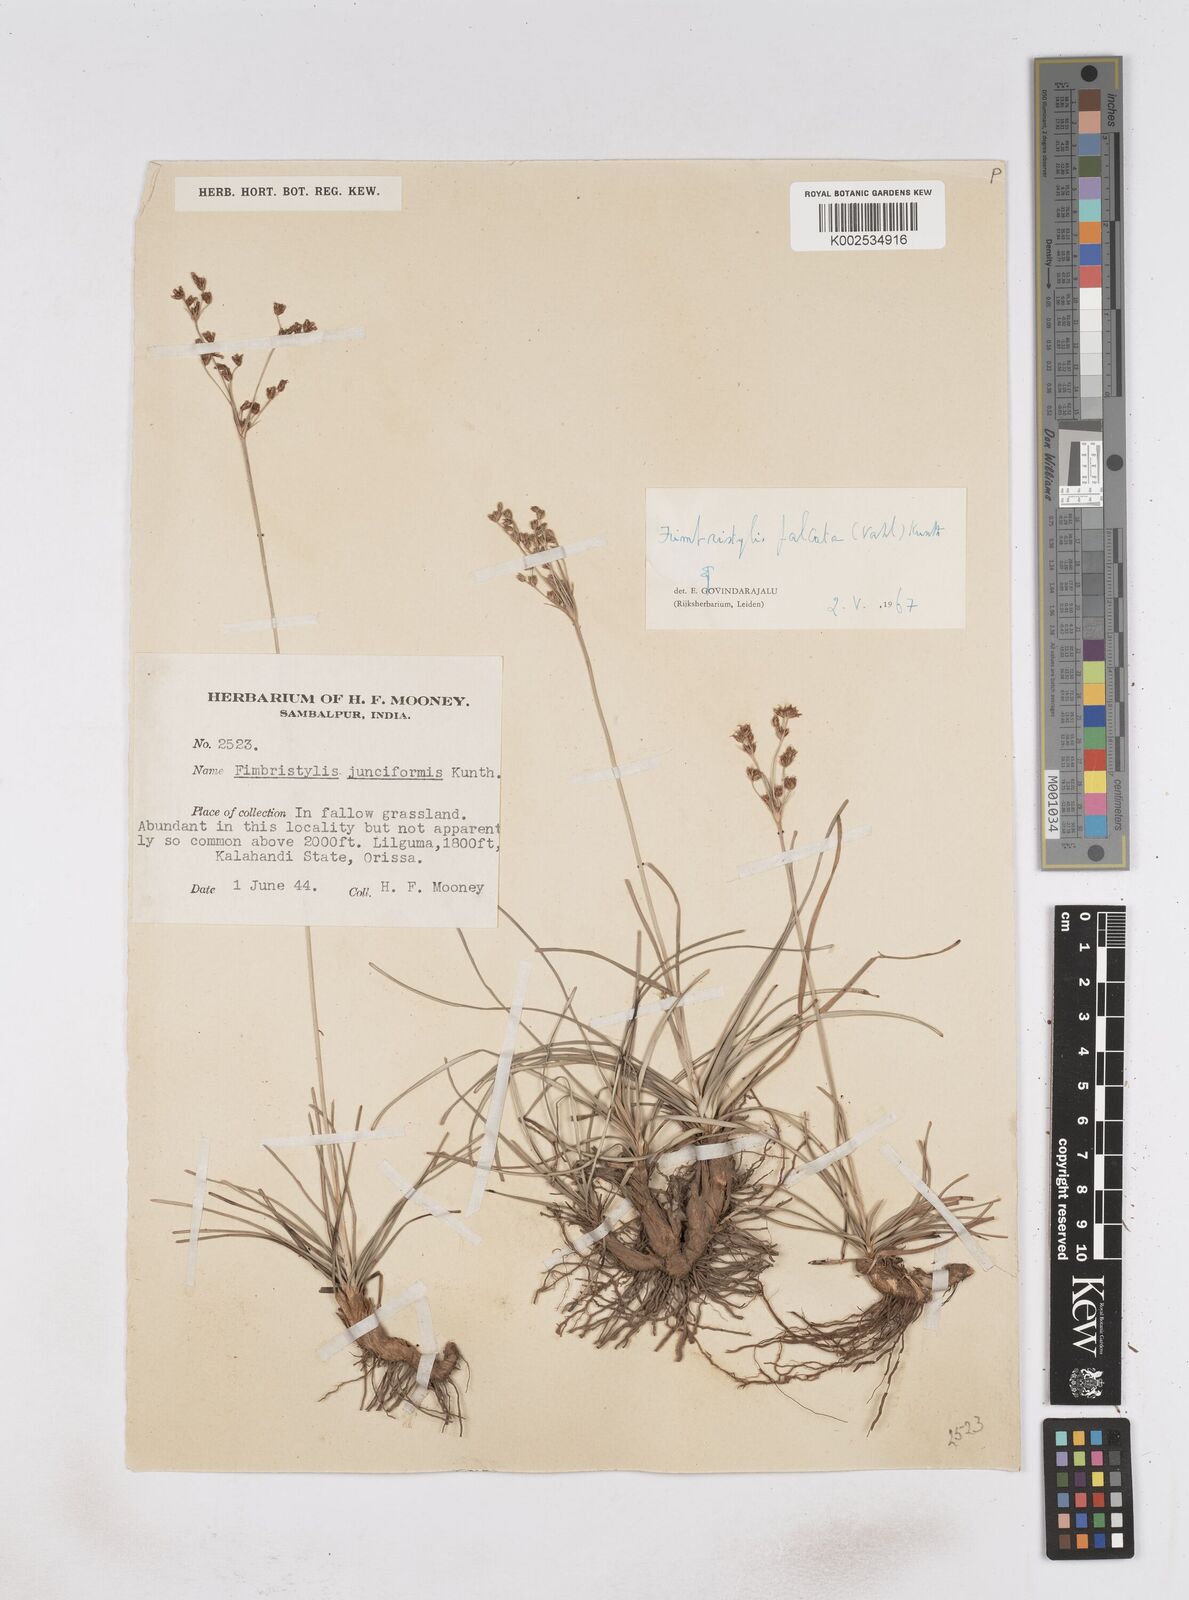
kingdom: Plantae
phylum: Tracheophyta
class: Liliopsida
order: Poales
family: Cyperaceae
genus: Fimbristylis
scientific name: Fimbristylis falcata
